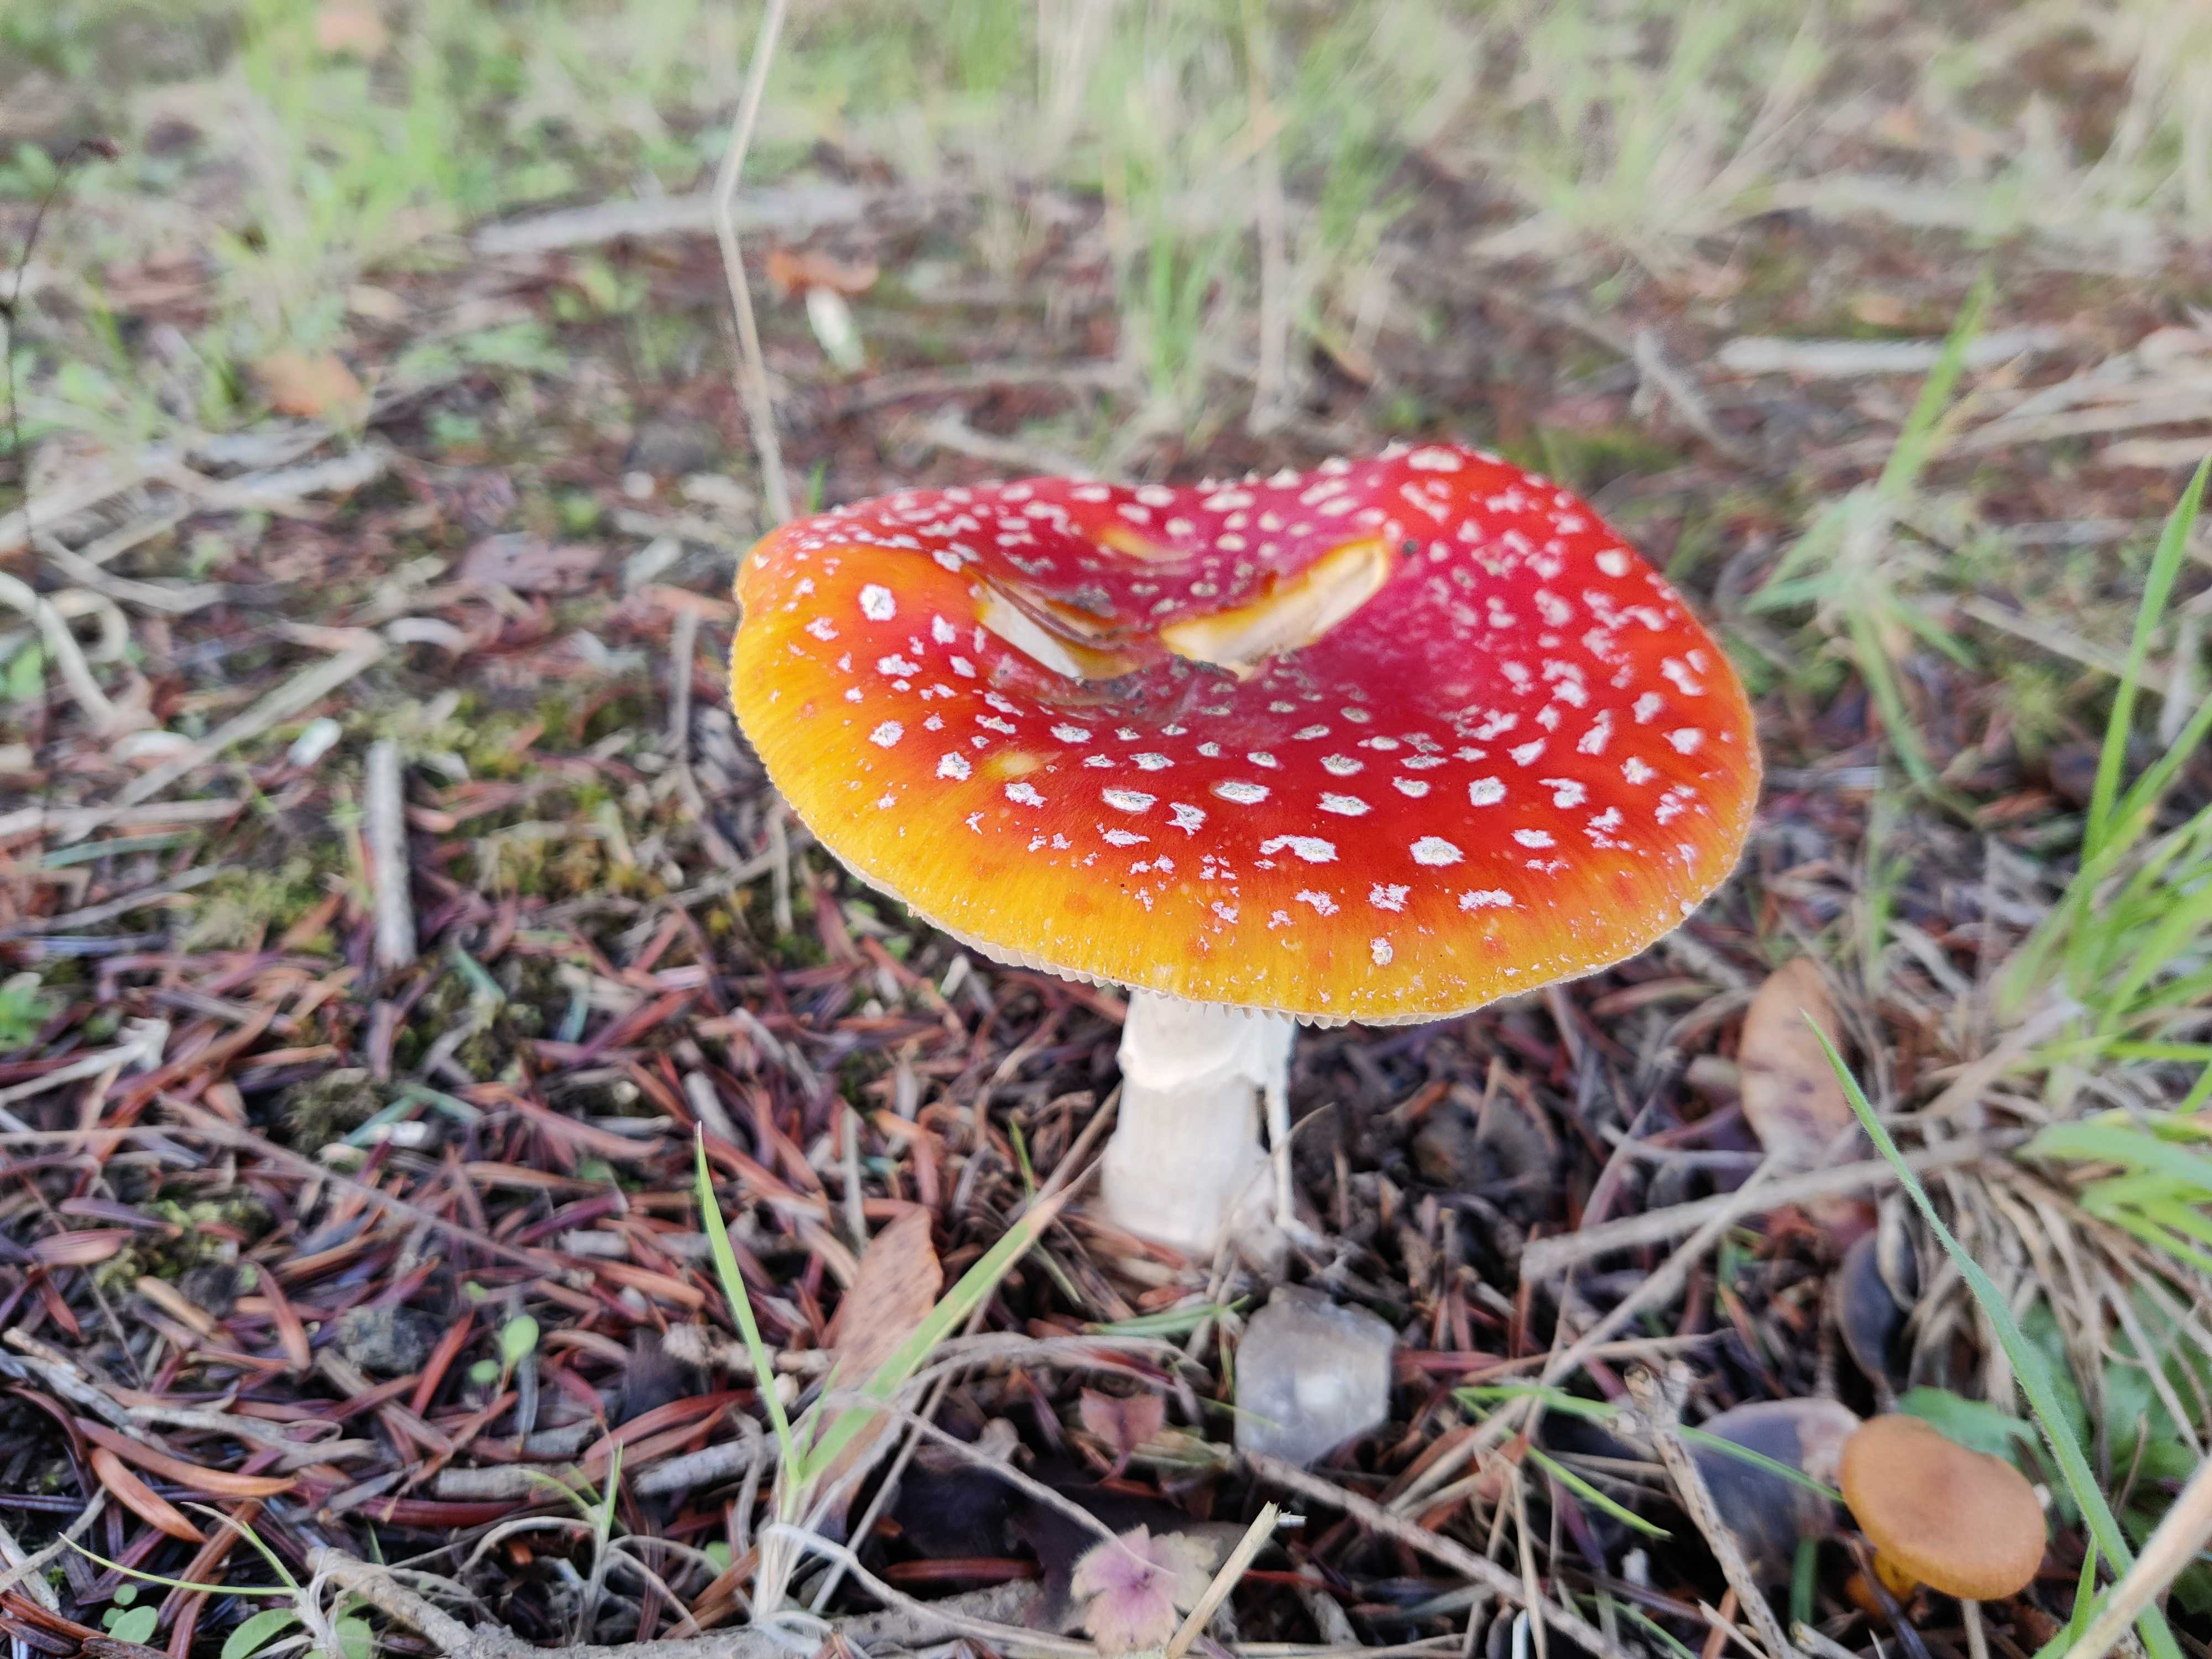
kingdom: Fungi
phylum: Basidiomycota
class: Agaricomycetes
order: Agaricales
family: Amanitaceae
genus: Amanita
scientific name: Amanita muscaria
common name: rød fluesvamp
